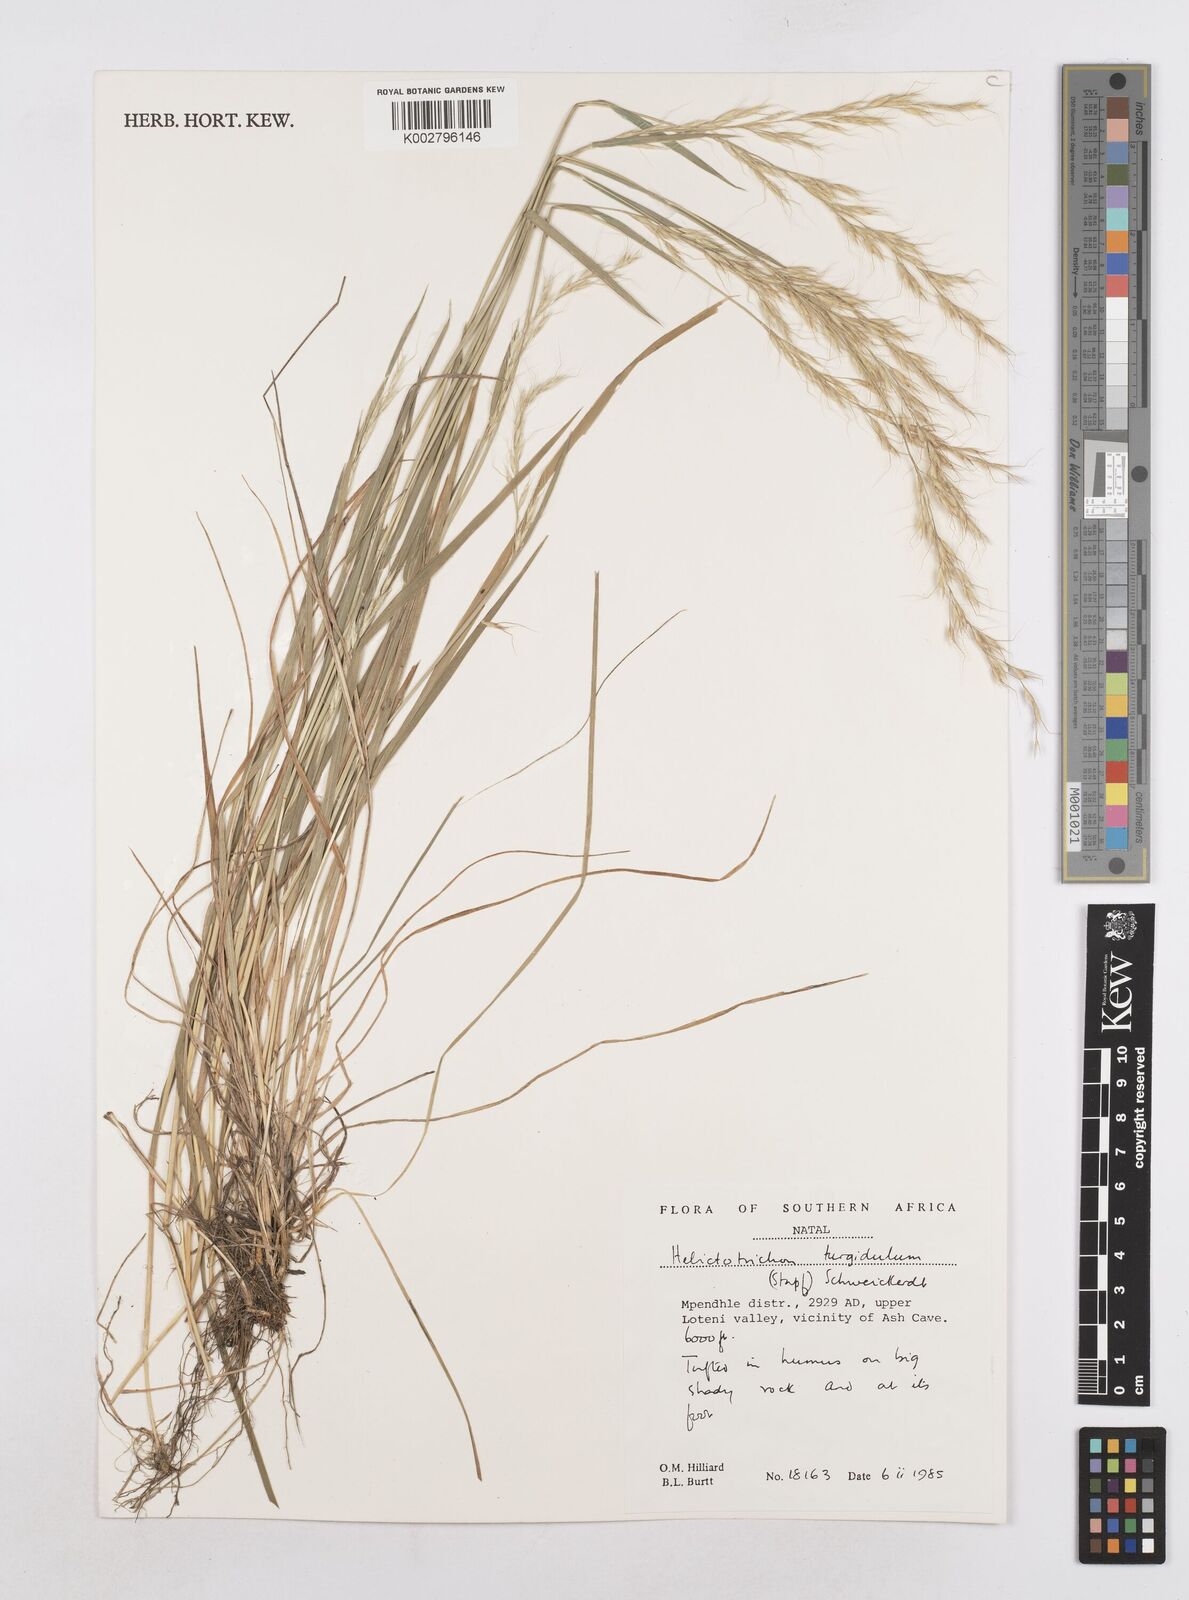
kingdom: Plantae
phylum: Tracheophyta
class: Liliopsida
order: Poales
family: Poaceae
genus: Trisetopsis
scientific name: Trisetopsis imberbis
